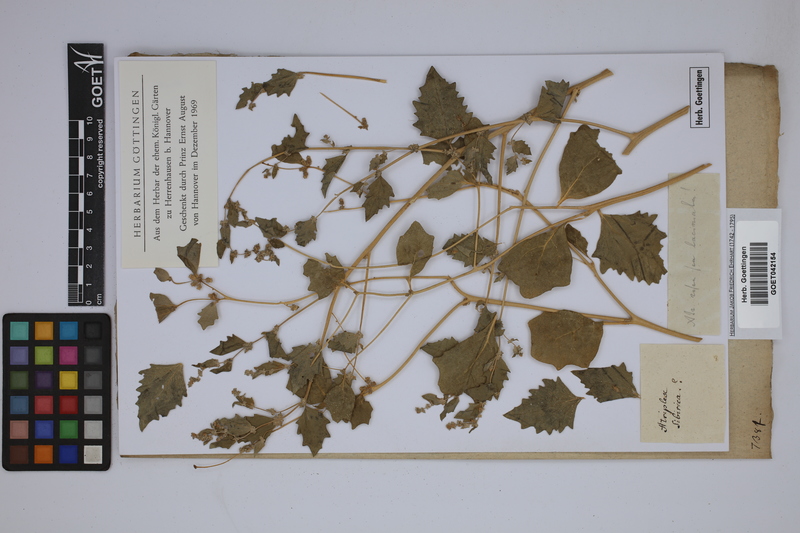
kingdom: Plantae
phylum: Tracheophyta
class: Magnoliopsida
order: Caryophyllales
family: Amaranthaceae
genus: Atriplex
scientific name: Atriplex laciniata
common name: Frosted orache
